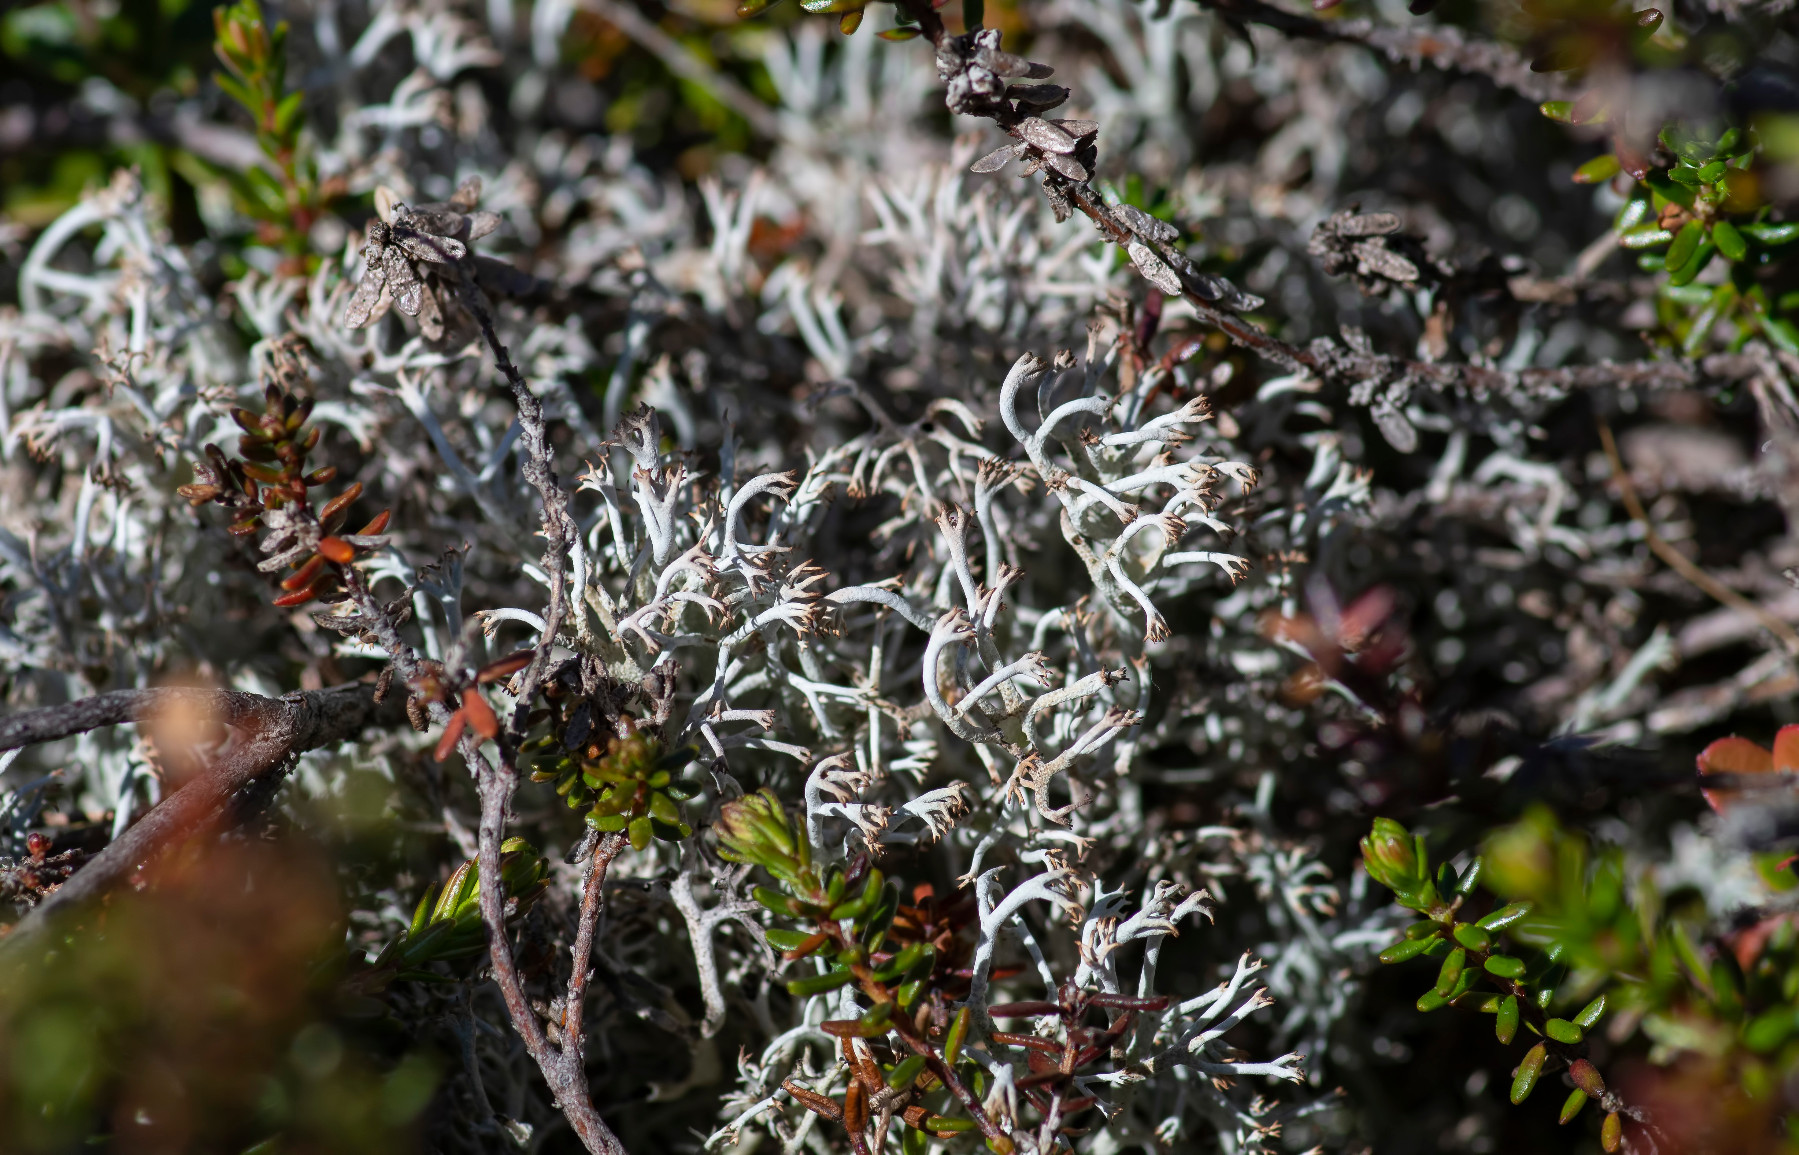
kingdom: Fungi
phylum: Ascomycota
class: Lecanoromycetes
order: Lecanorales
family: Cladoniaceae
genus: Cladonia
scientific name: Cladonia rangiferina
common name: askegrå rensdyrlav
